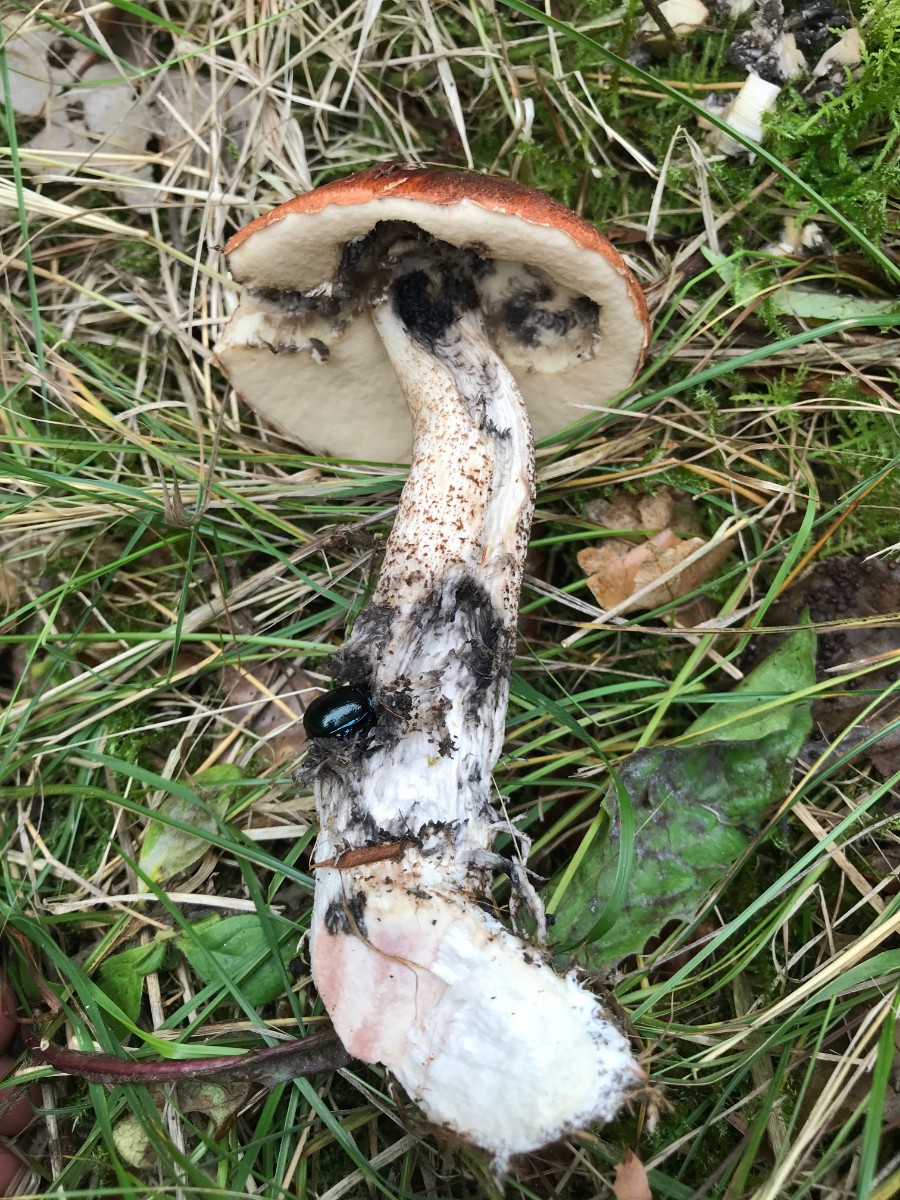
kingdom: Fungi
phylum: Basidiomycota
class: Agaricomycetes
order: Boletales
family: Boletaceae
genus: Leccinum
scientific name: Leccinum aurantiacum
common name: rustrød skælrørhat
